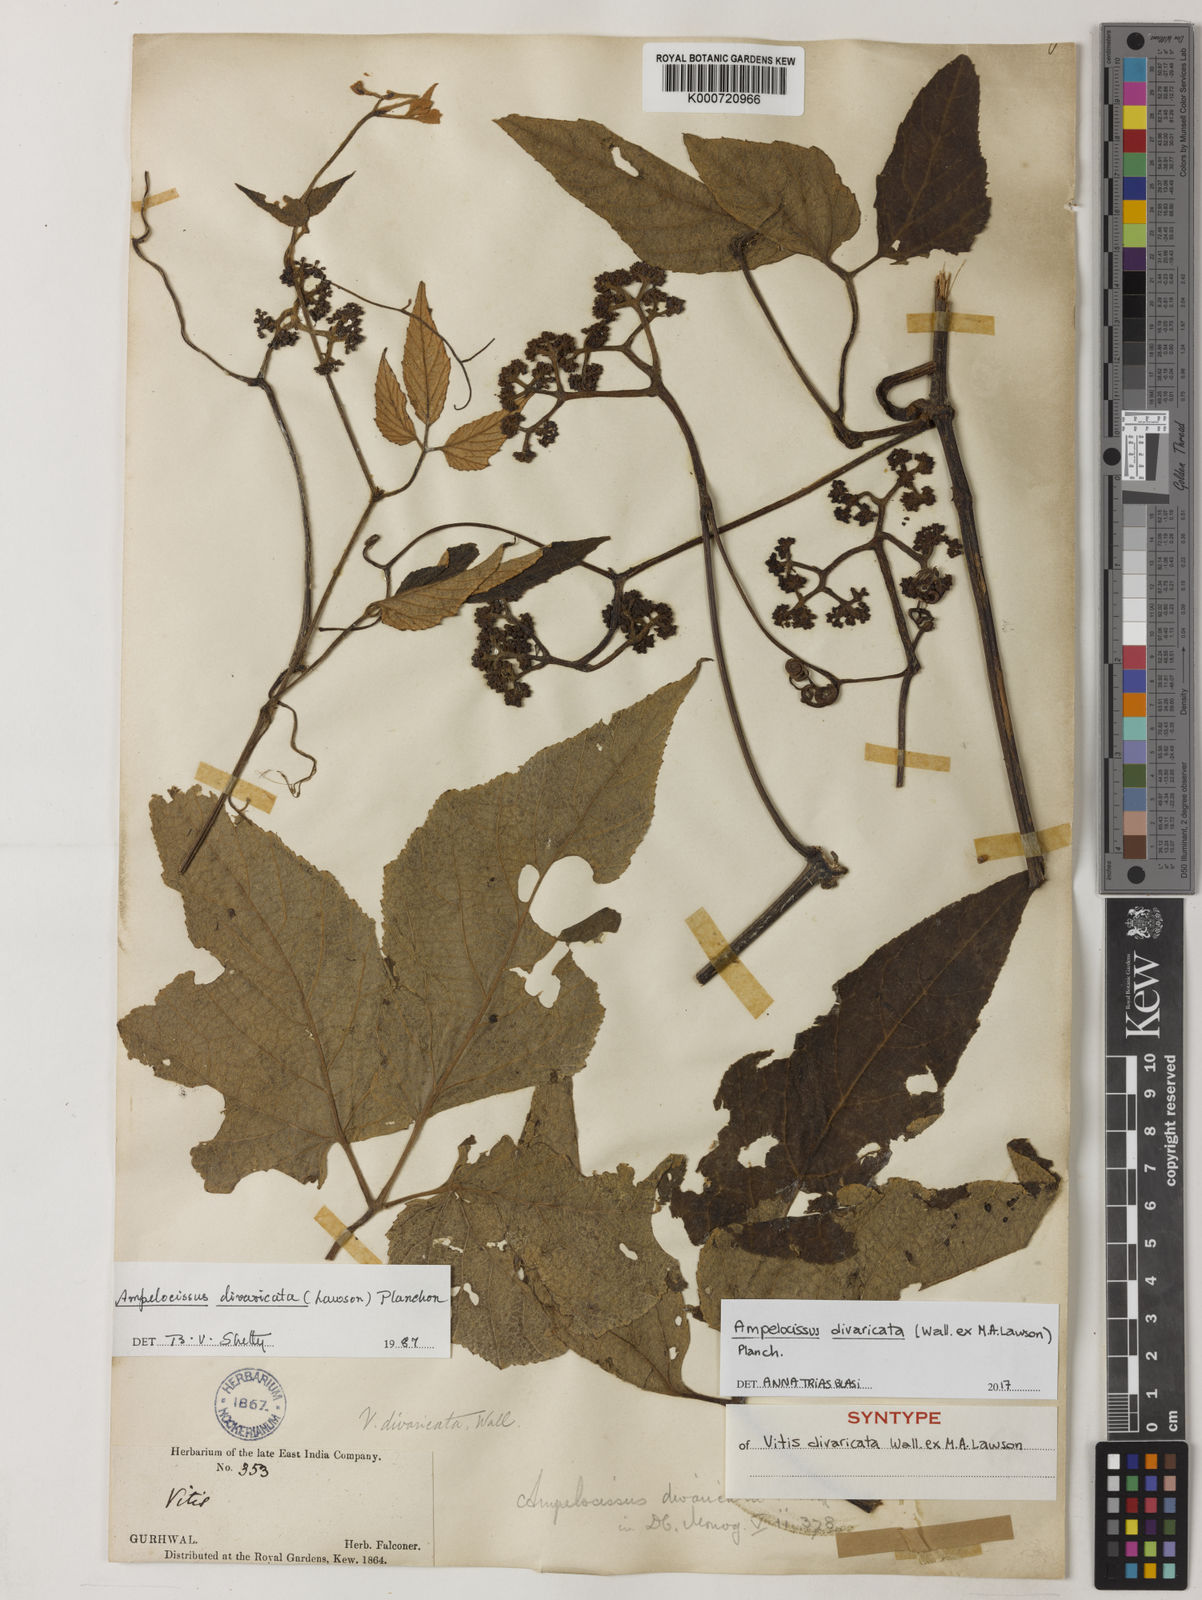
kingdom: Plantae
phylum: Tracheophyta
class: Magnoliopsida
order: Vitales
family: Vitaceae
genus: Ampelocissus
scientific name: Ampelocissus divaricata
